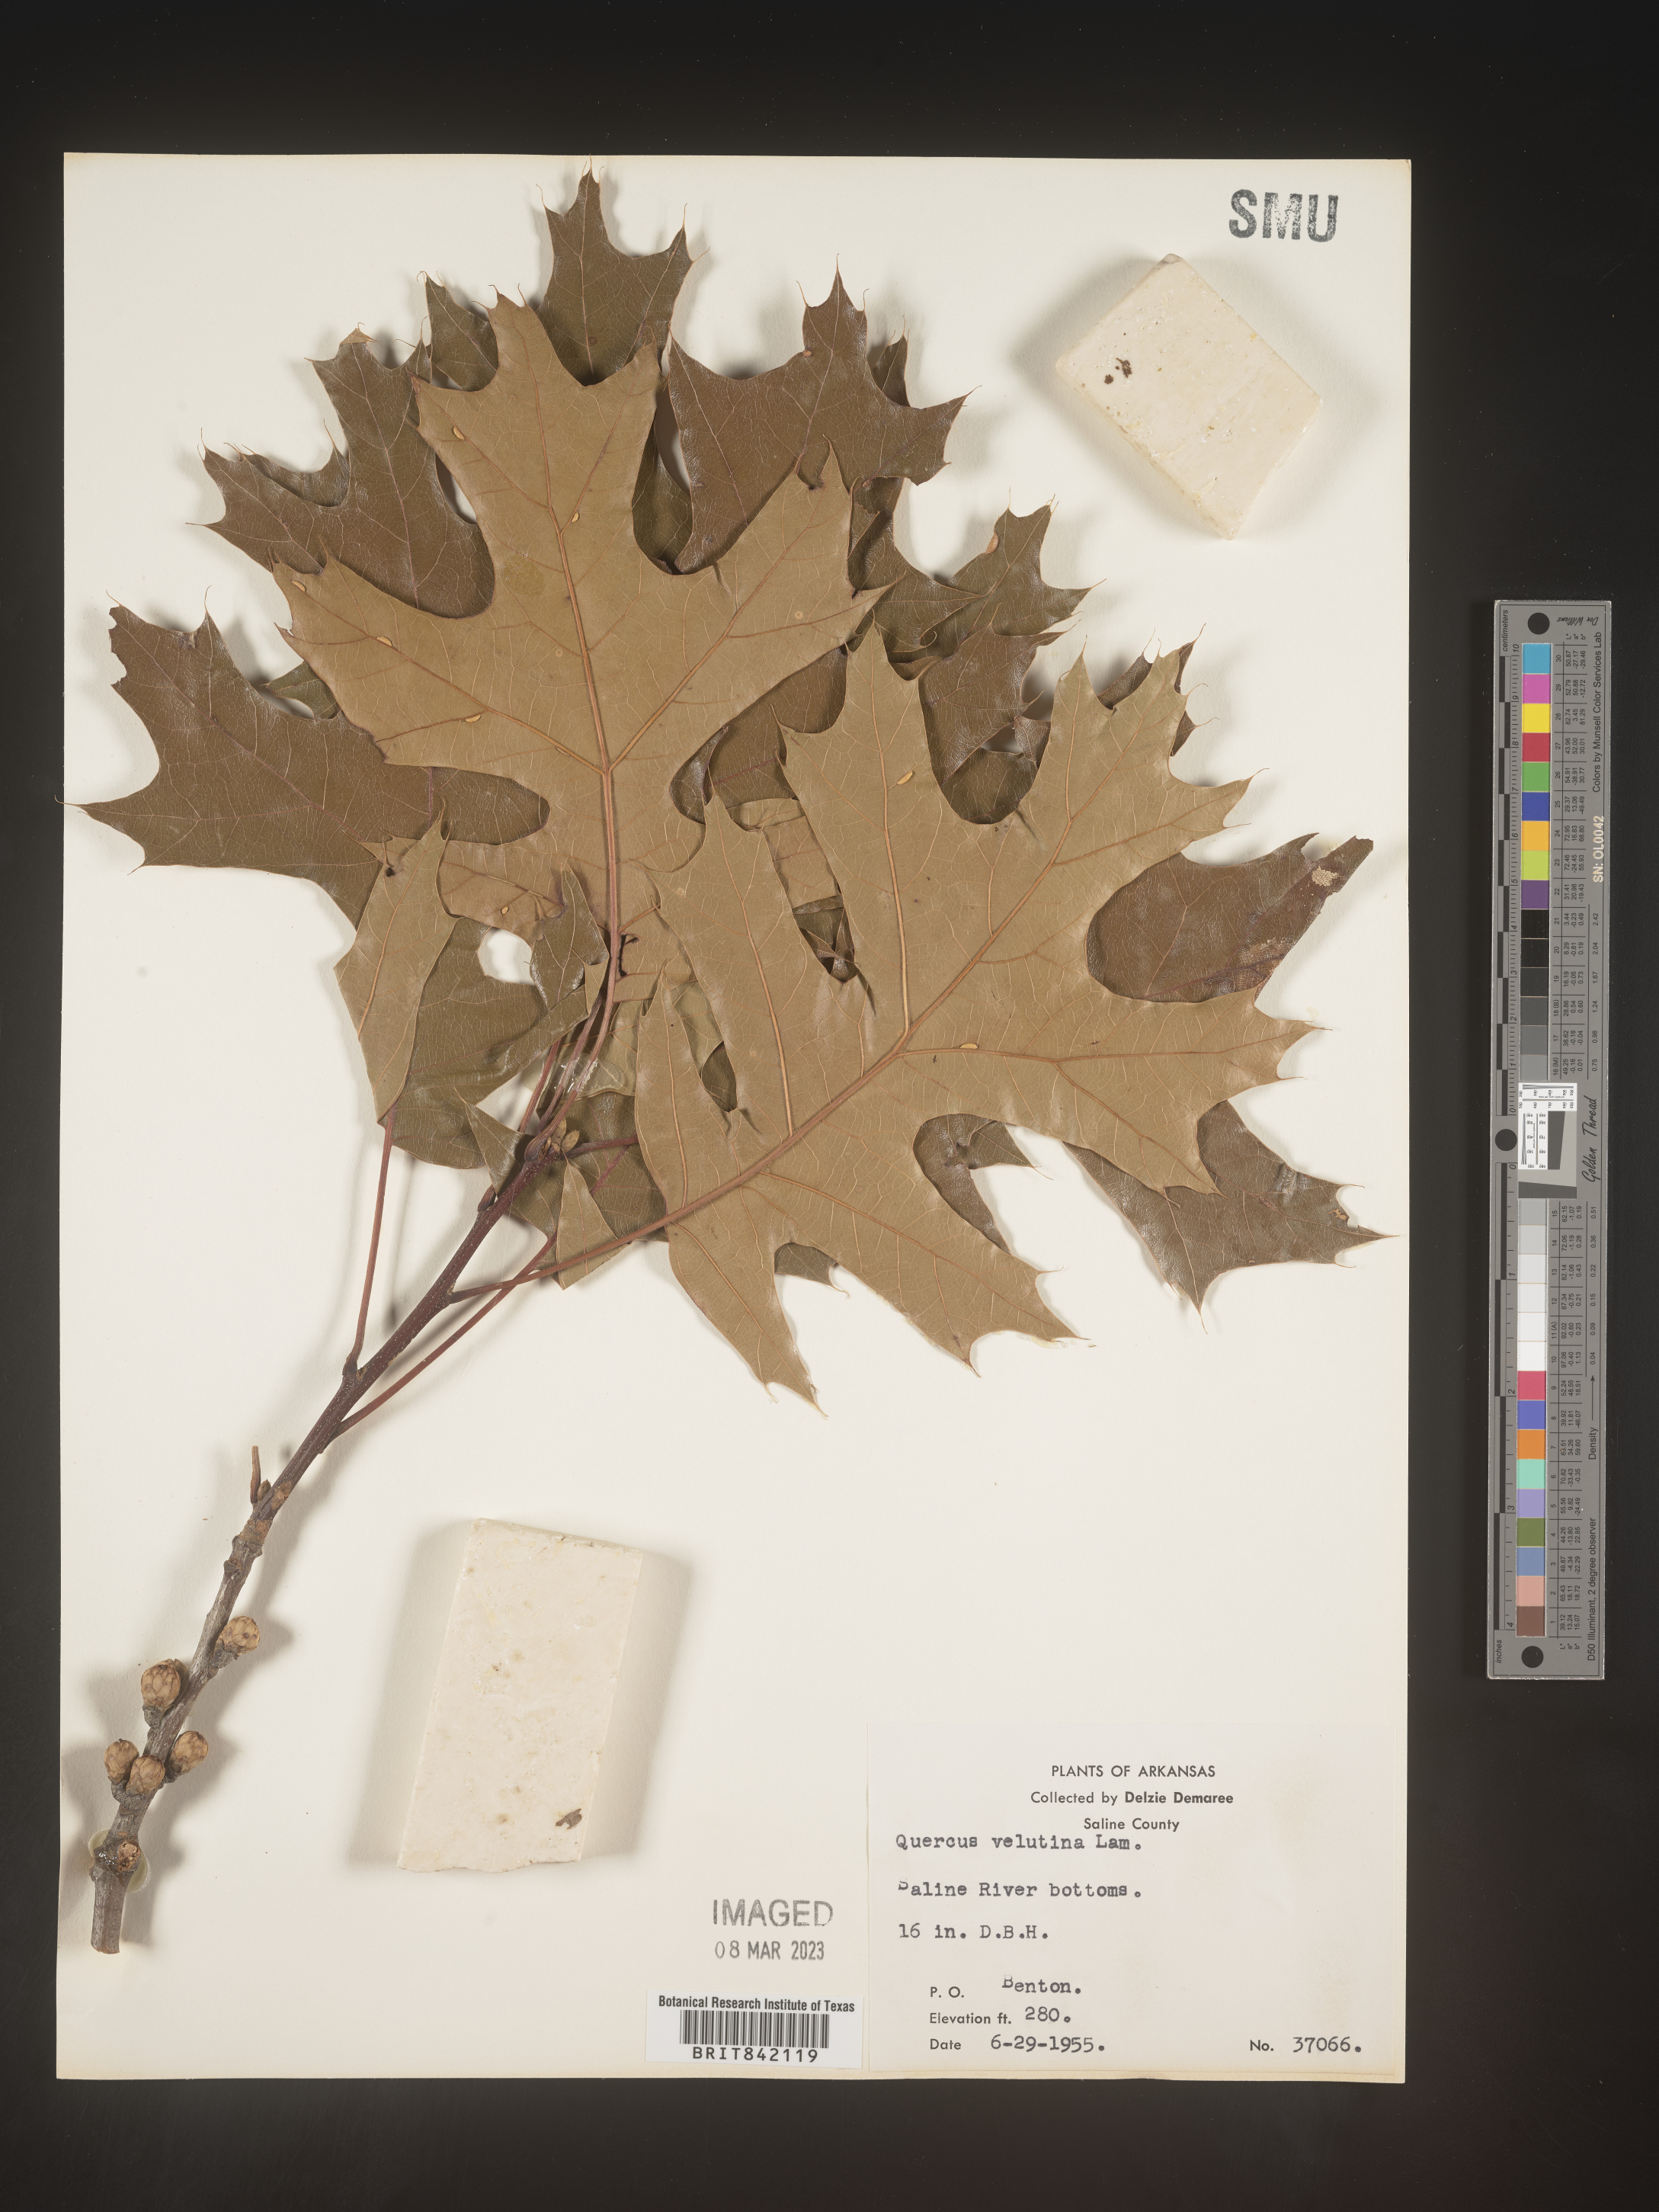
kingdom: Plantae
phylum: Tracheophyta
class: Magnoliopsida
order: Fagales
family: Fagaceae
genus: Quercus
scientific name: Quercus velutina
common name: Black oak
